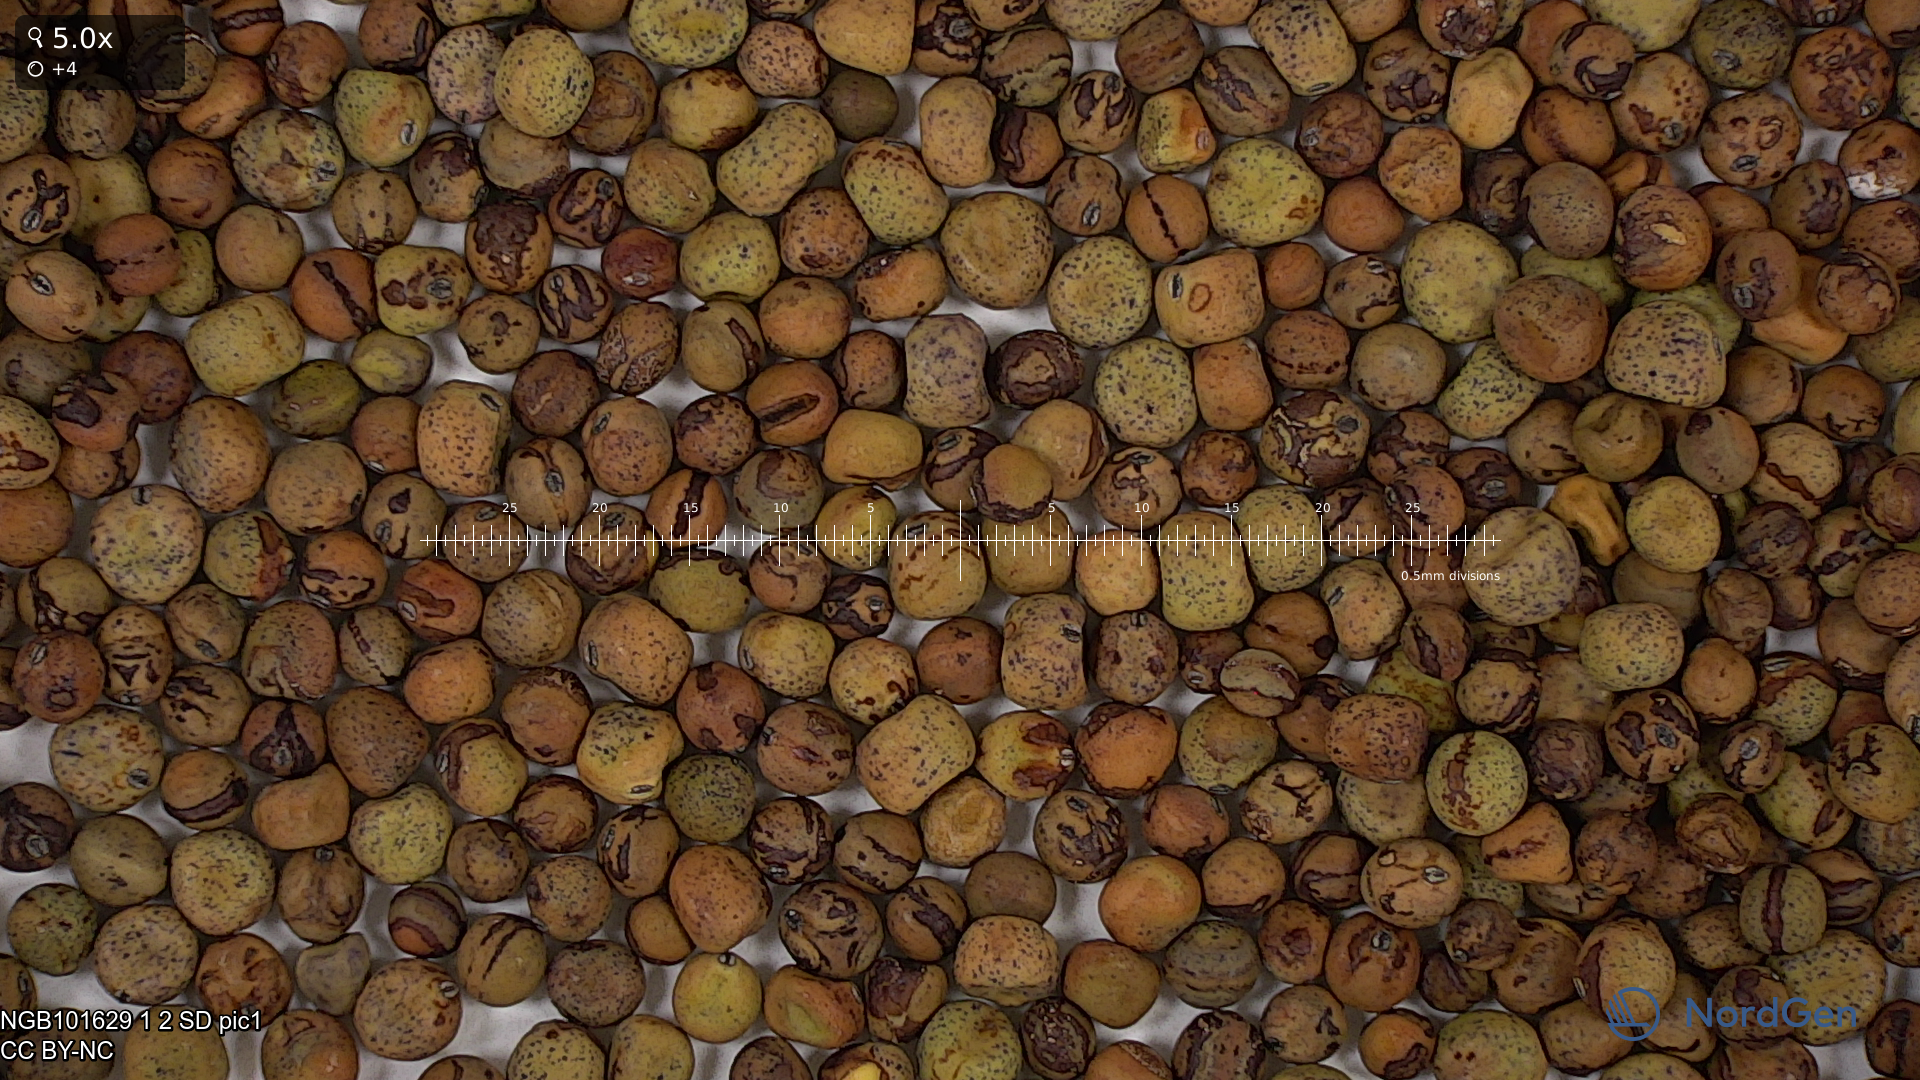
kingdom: Plantae
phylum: Tracheophyta
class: Magnoliopsida
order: Fabales
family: Fabaceae
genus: Lathyrus
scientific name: Lathyrus oleraceus
